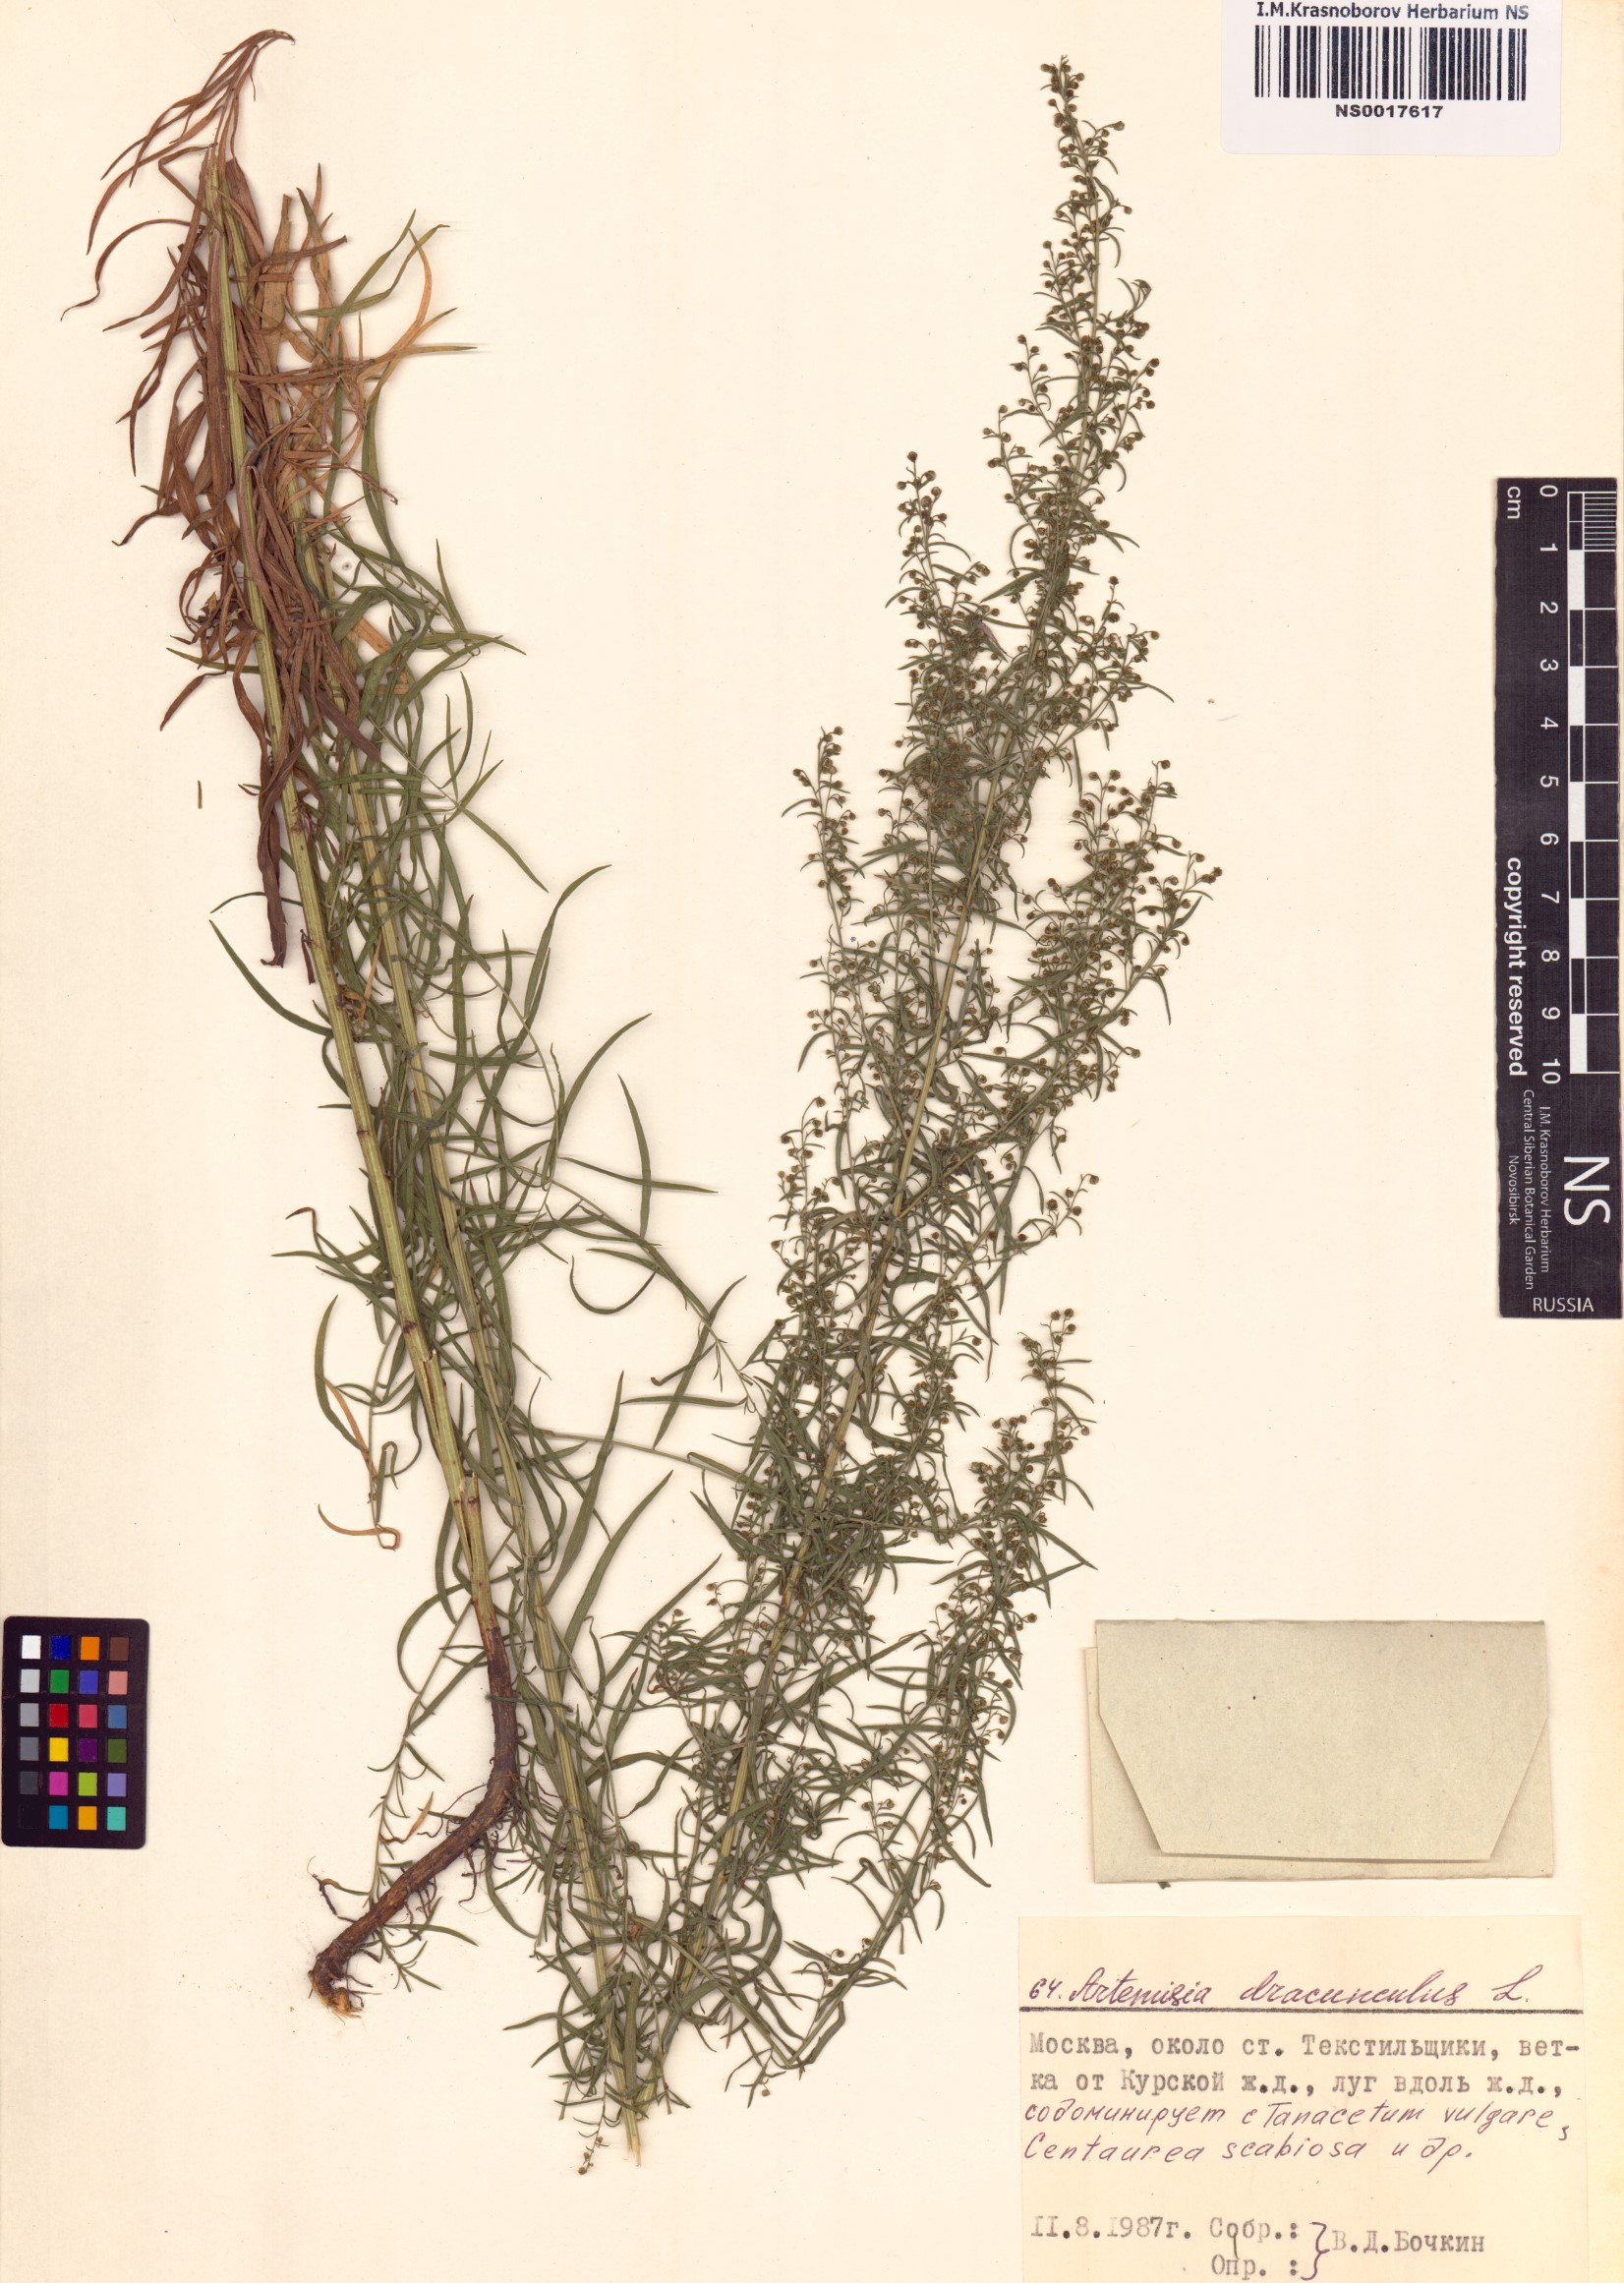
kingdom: Plantae
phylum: Tracheophyta
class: Magnoliopsida
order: Asterales
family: Asteraceae
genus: Artemisia
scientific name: Artemisia dracunculus
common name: Tarragon
